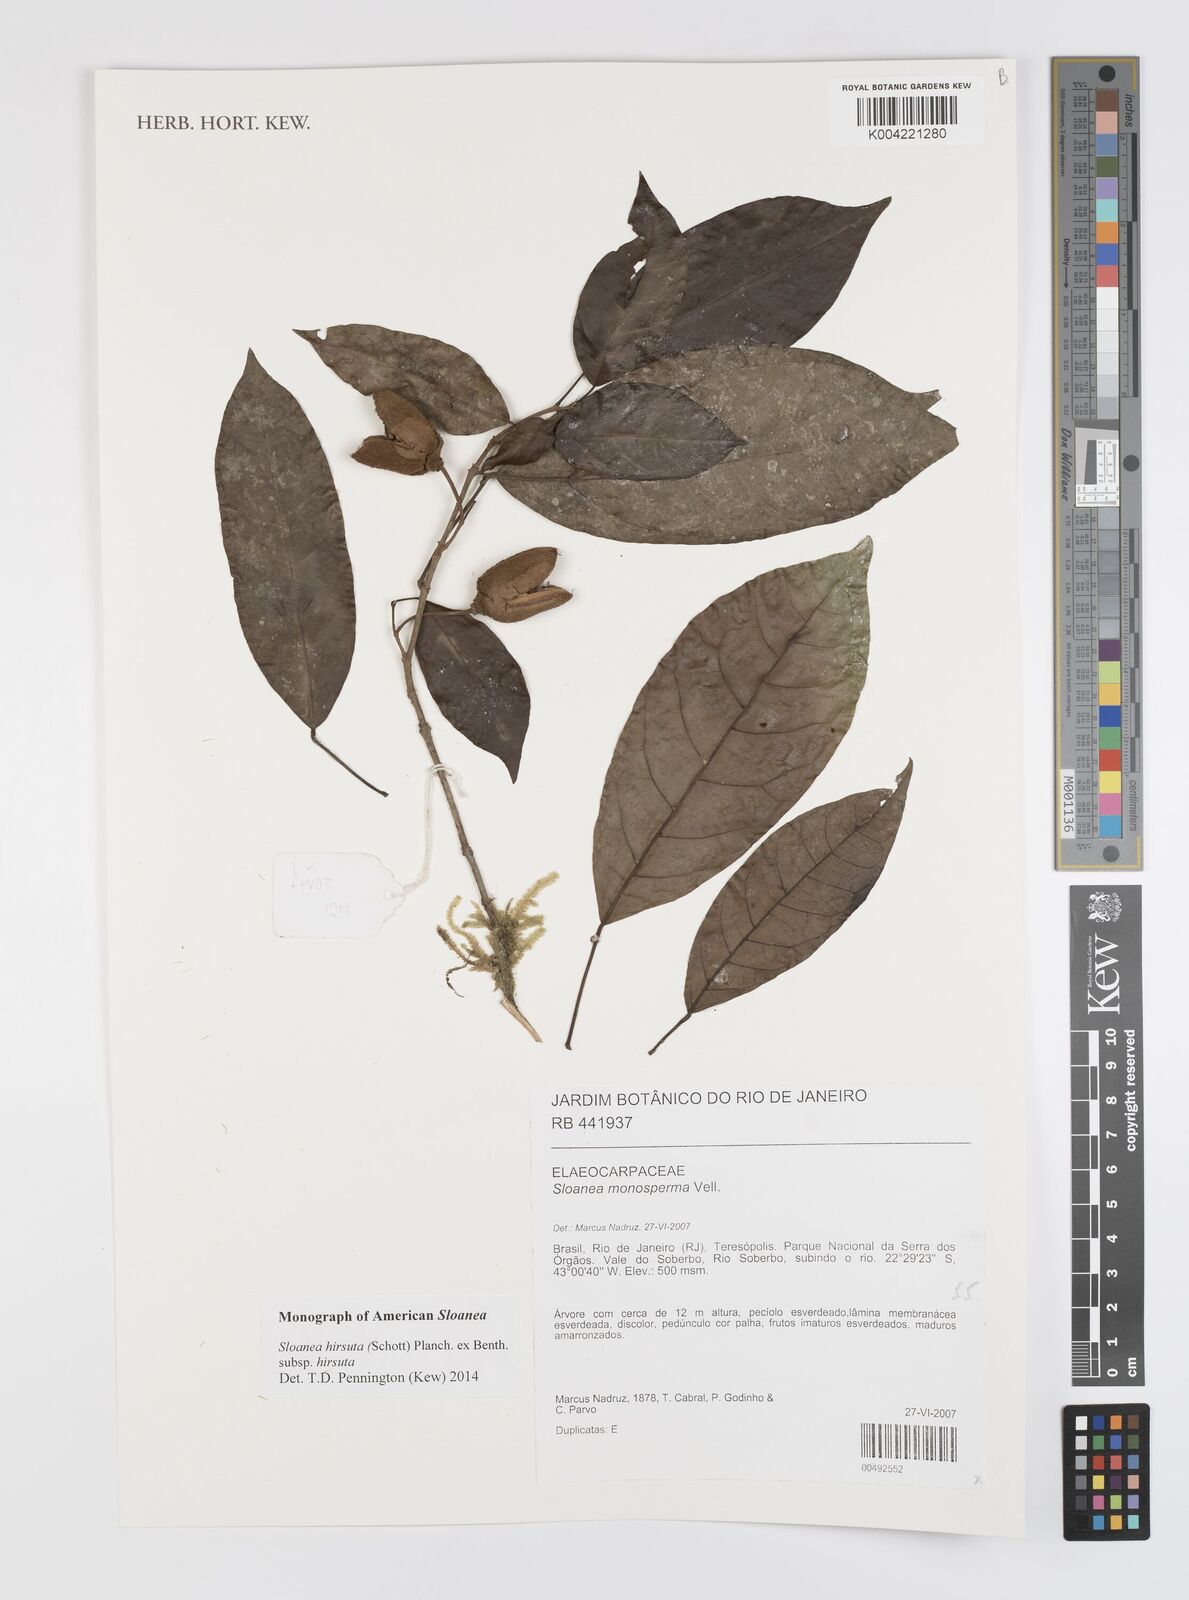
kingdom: Plantae
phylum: Tracheophyta
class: Magnoliopsida
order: Oxalidales
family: Elaeocarpaceae
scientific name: Elaeocarpaceae
